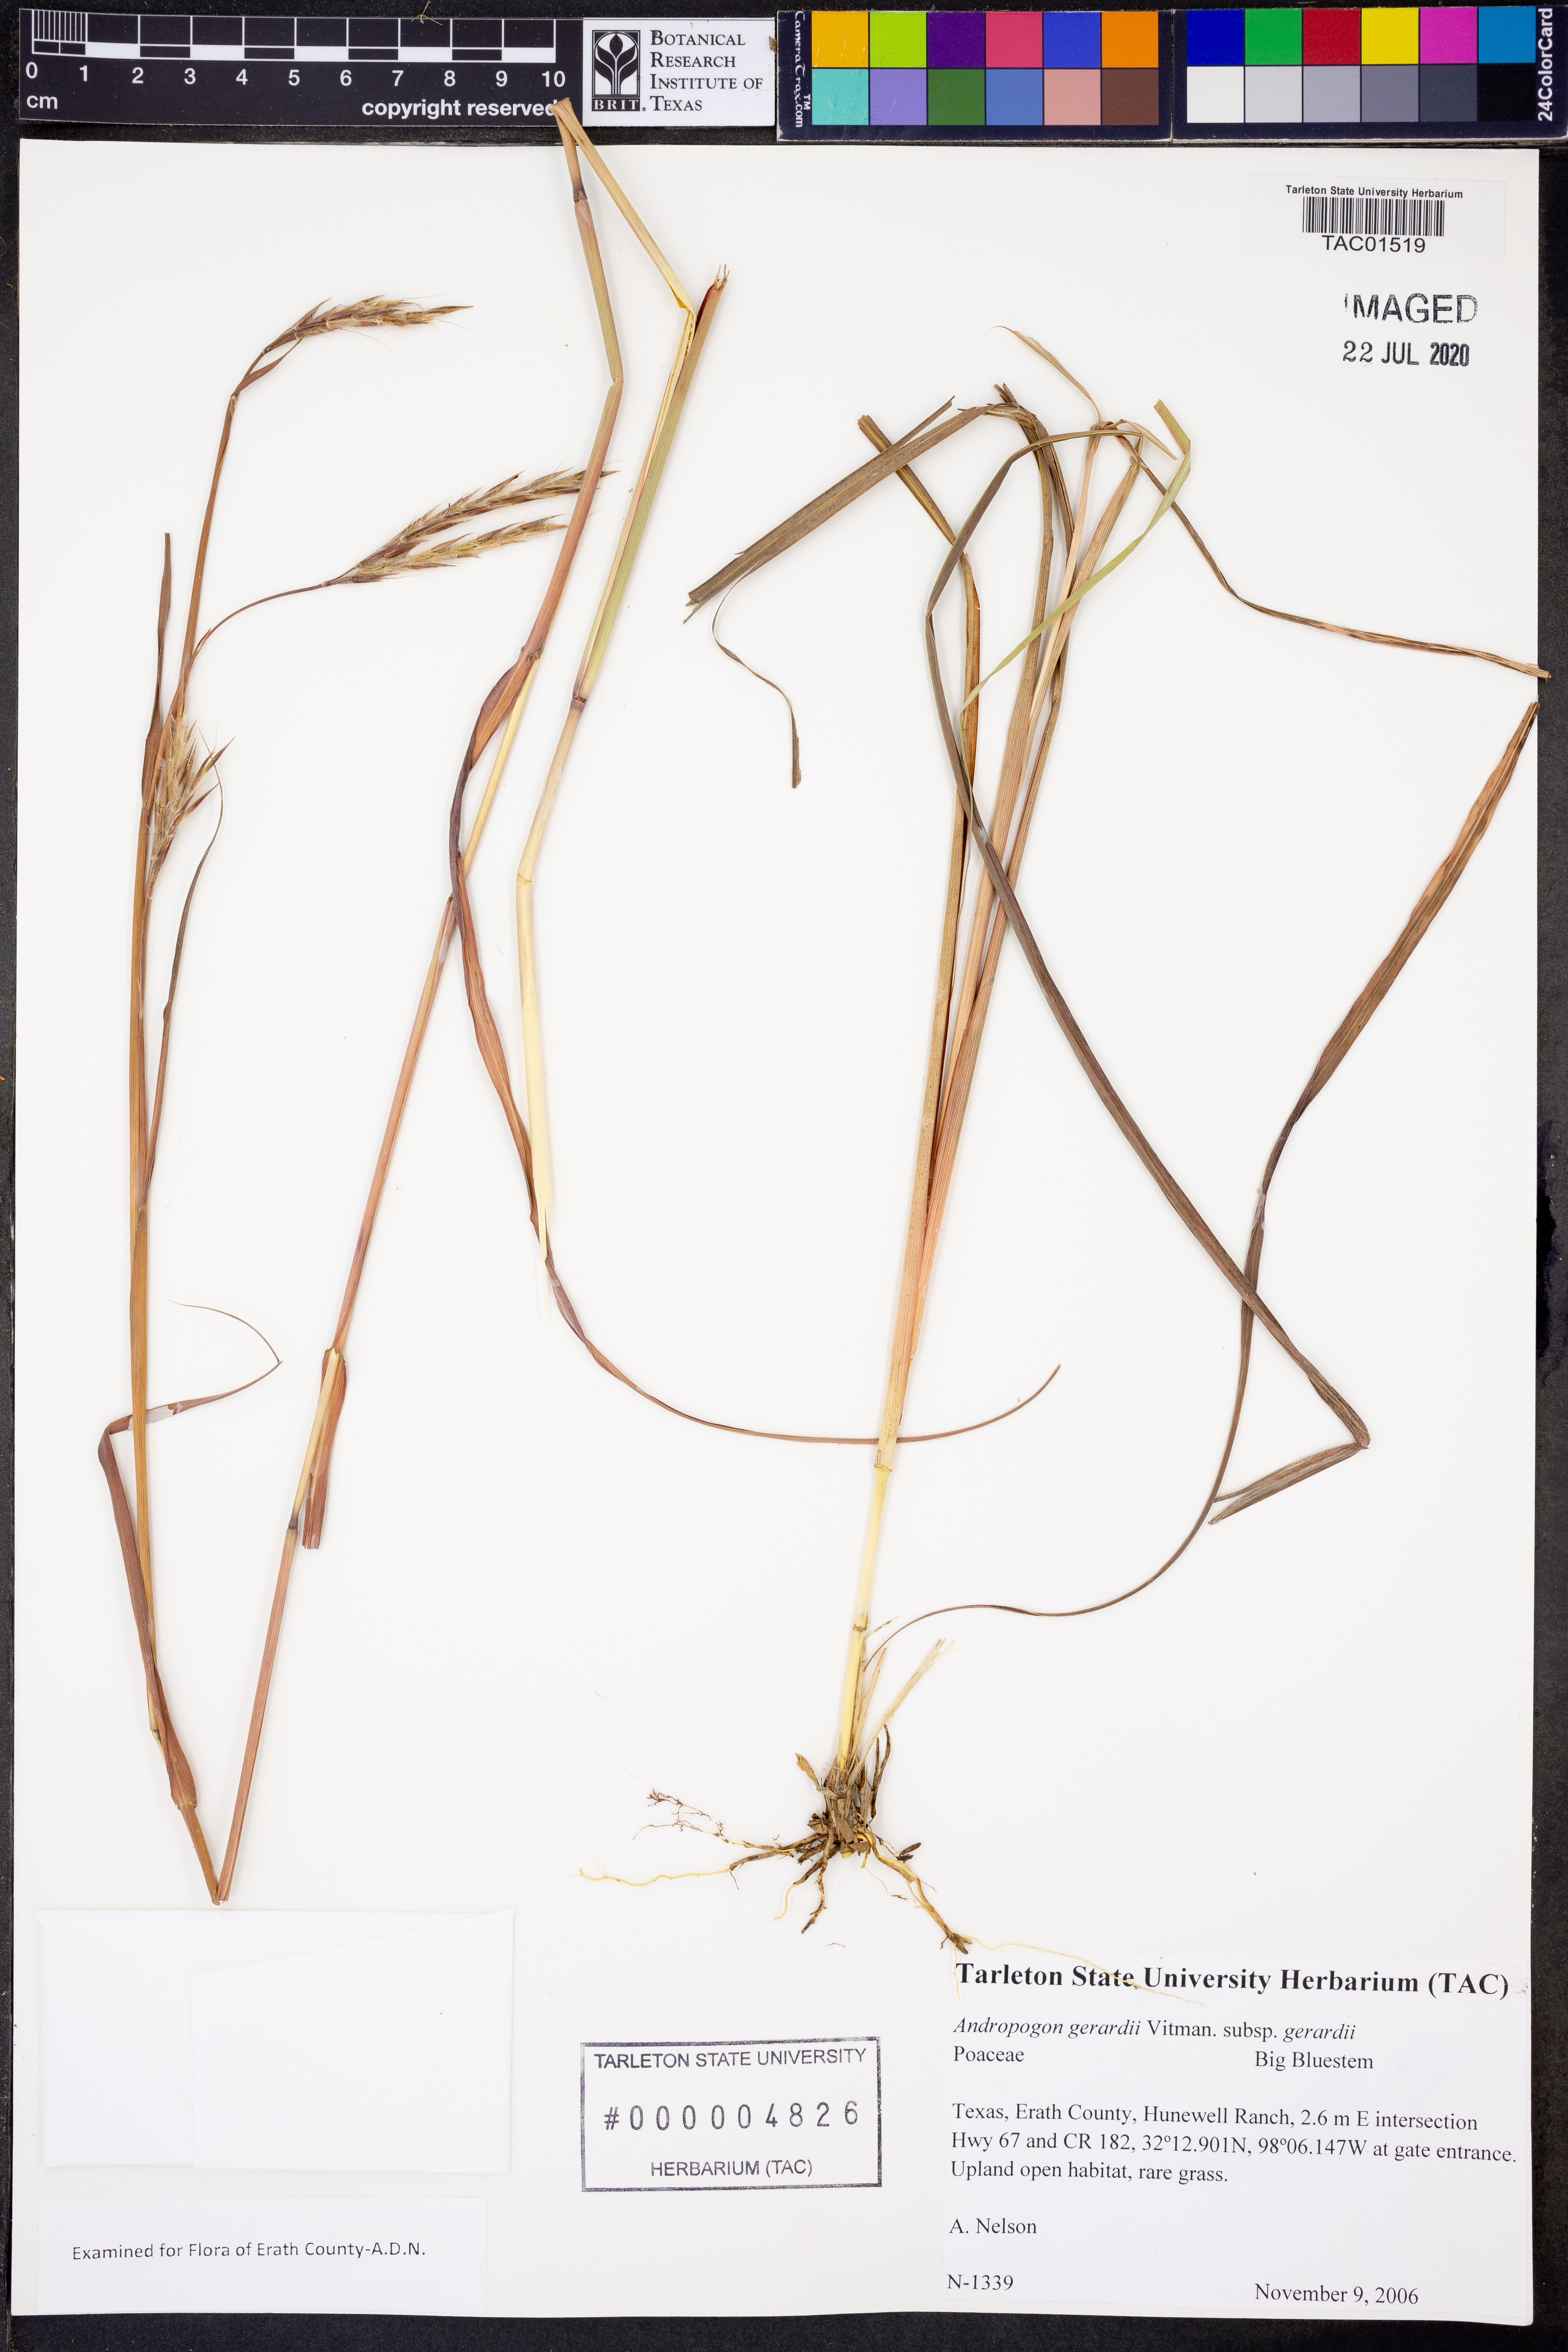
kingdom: Plantae
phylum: Tracheophyta
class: Liliopsida
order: Poales
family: Poaceae
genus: Andropogon
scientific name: Andropogon gerardi
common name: Big bluestem
